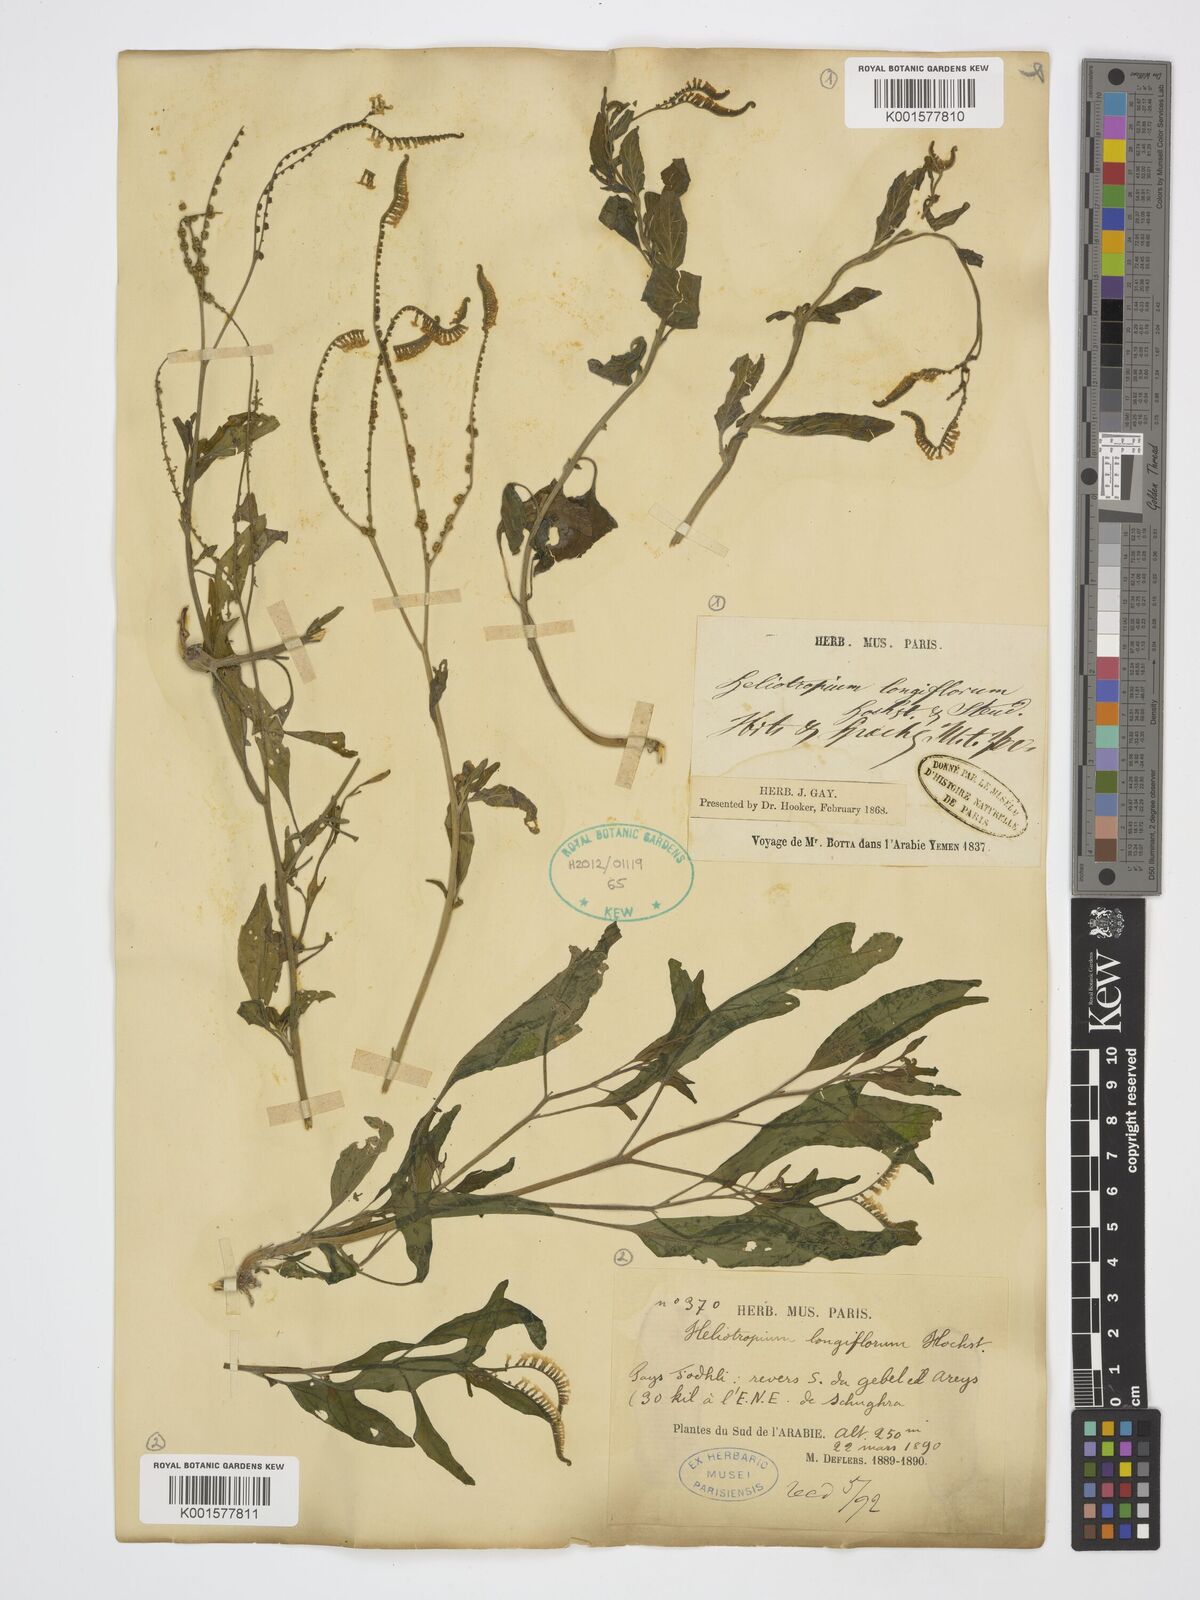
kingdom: Plantae
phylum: Tracheophyta
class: Magnoliopsida
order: Boraginales
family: Heliotropiaceae
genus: Heliotropium
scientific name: Heliotropium longiflorum
